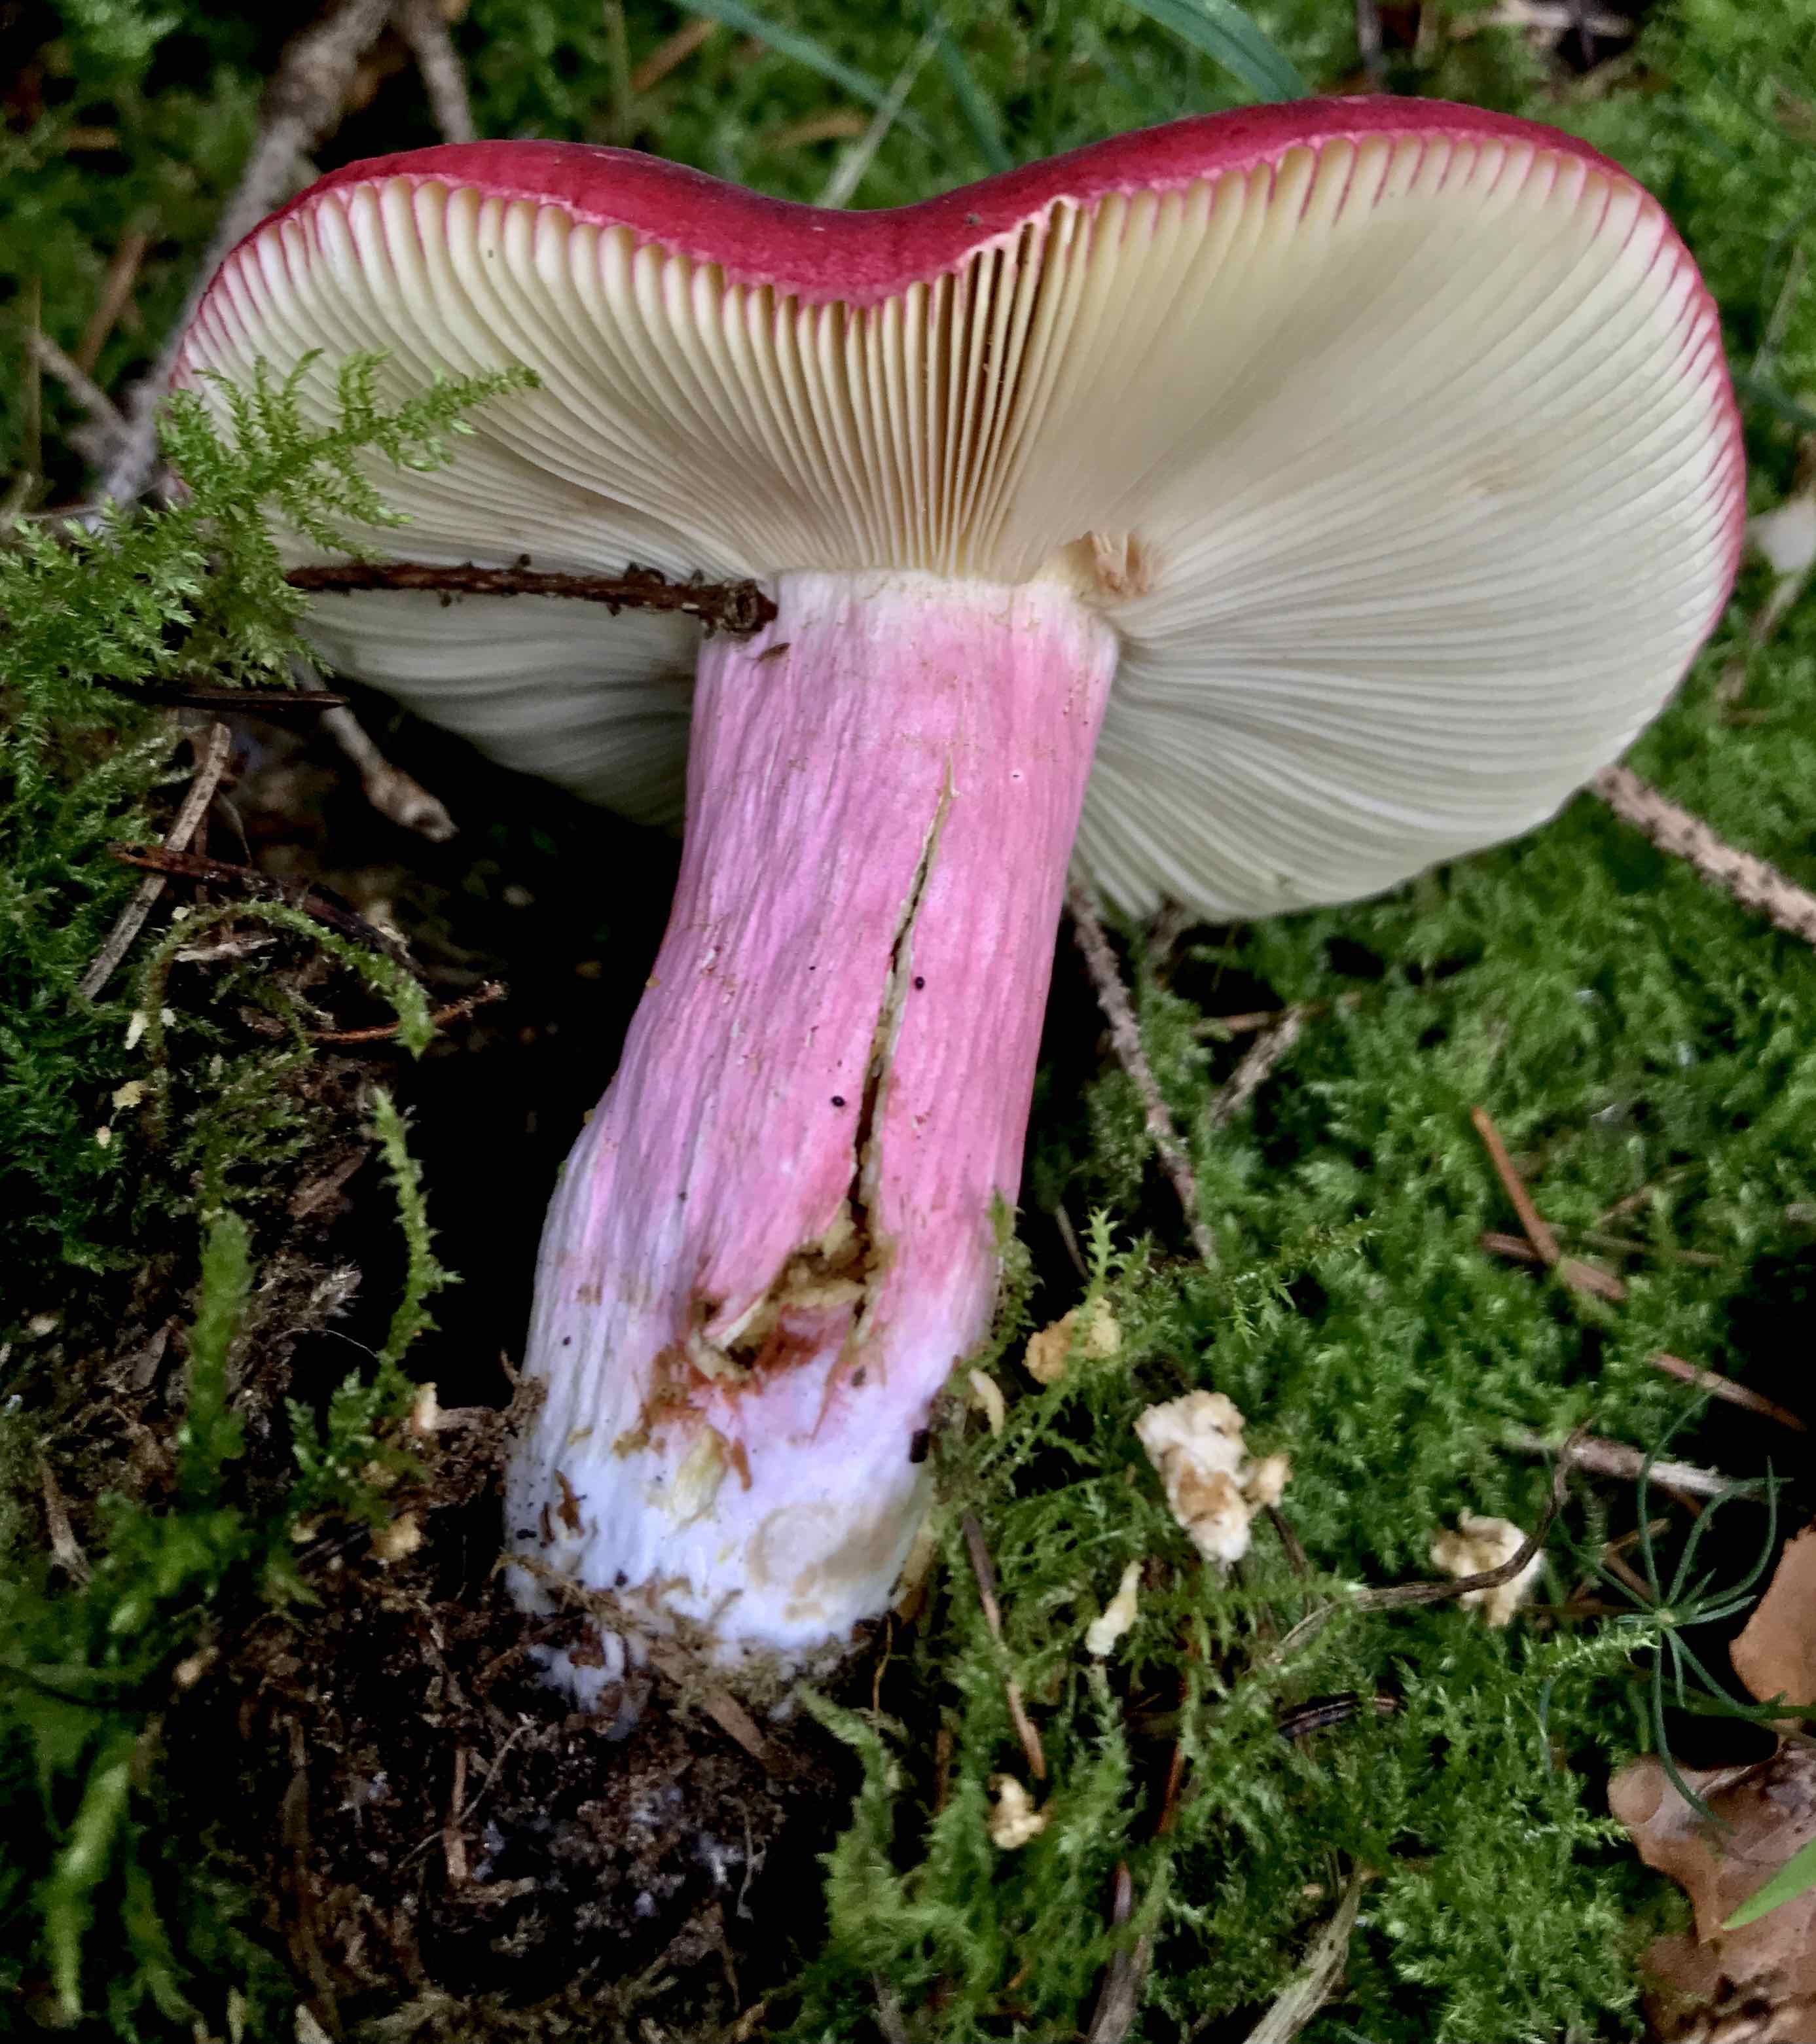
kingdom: Fungi
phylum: Basidiomycota
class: Agaricomycetes
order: Russulales
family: Russulaceae
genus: Russula
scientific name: Russula xerampelina
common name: hummer-skørhat
